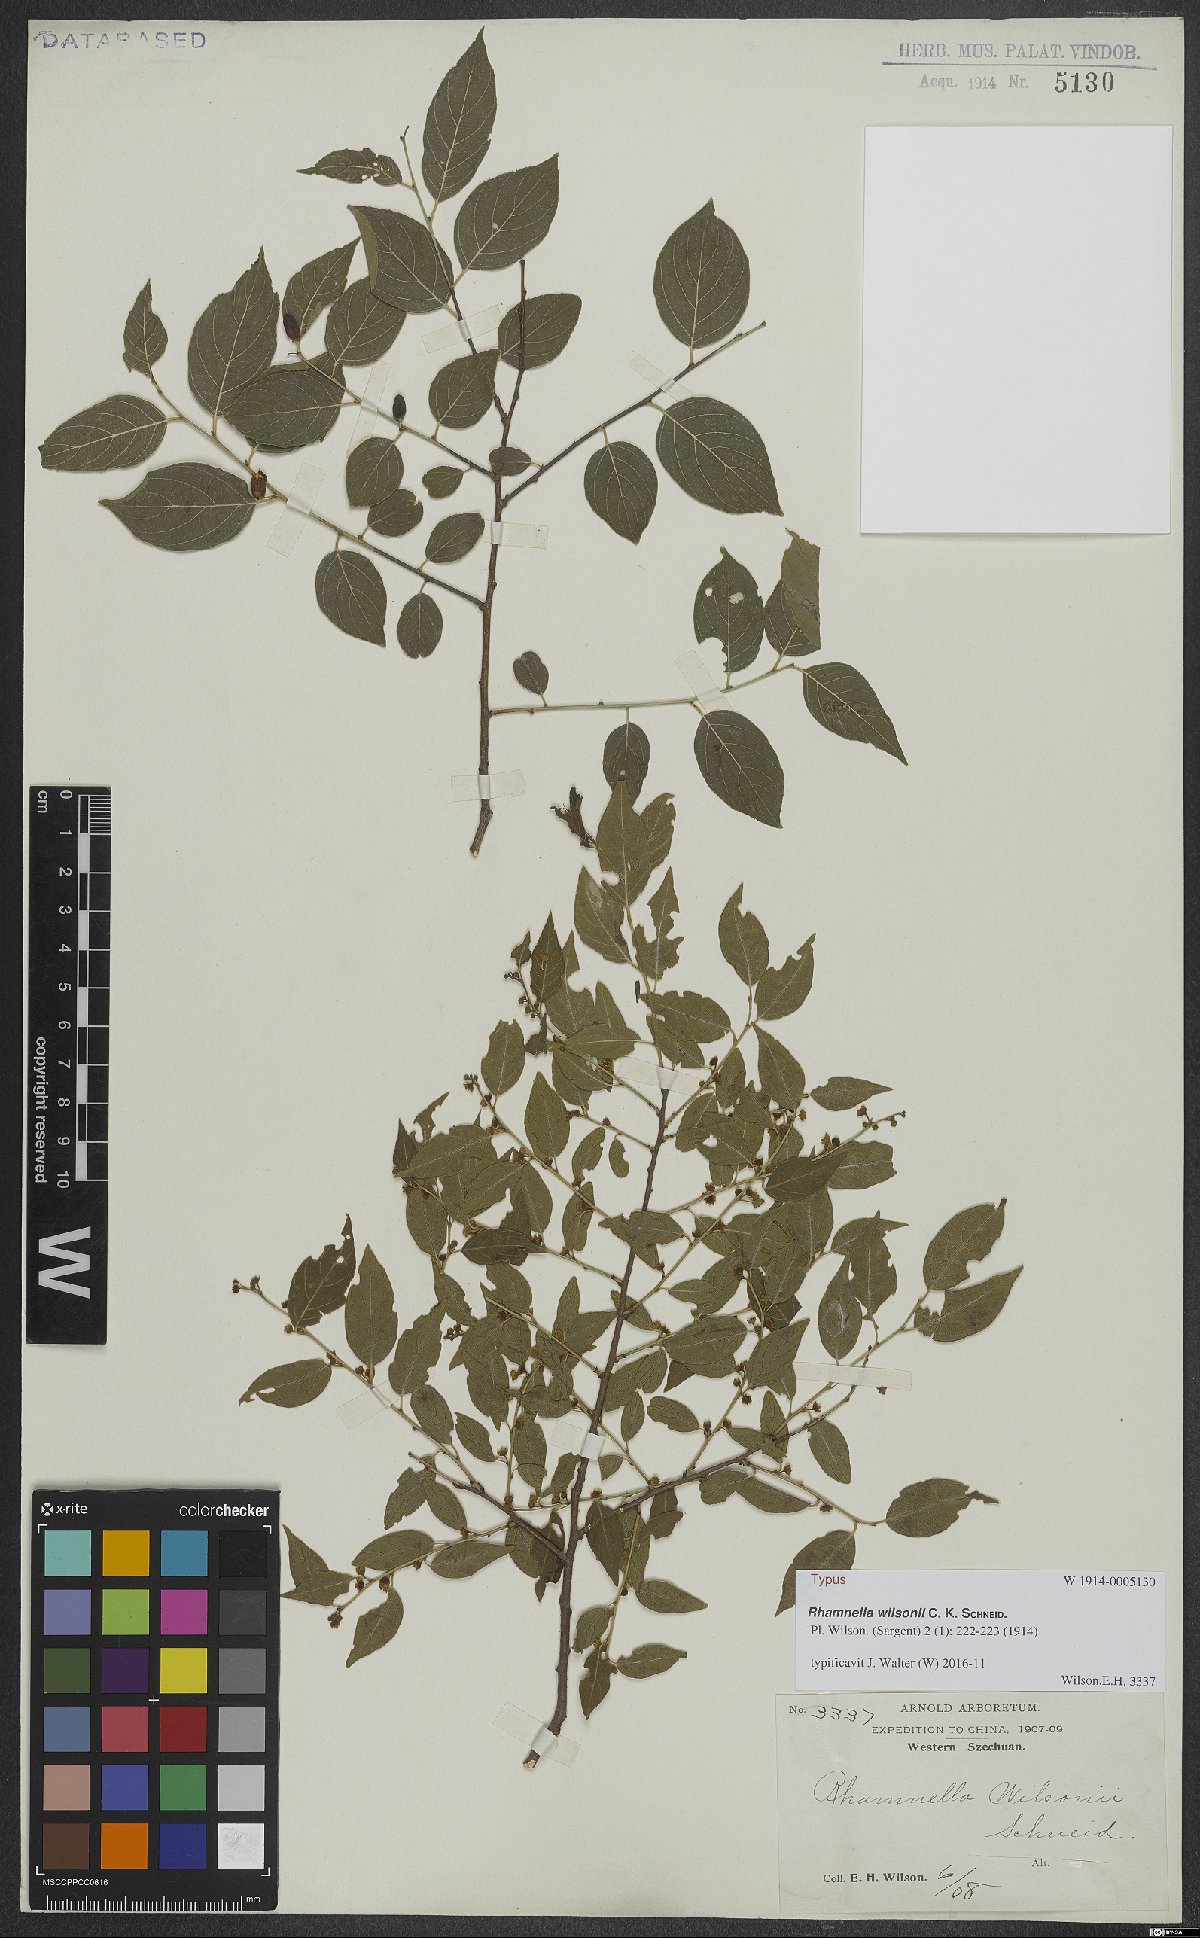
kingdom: Plantae
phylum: Tracheophyta
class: Magnoliopsida
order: Rosales
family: Rhamnaceae
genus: Rhamnella
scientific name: Rhamnella wilsonii
